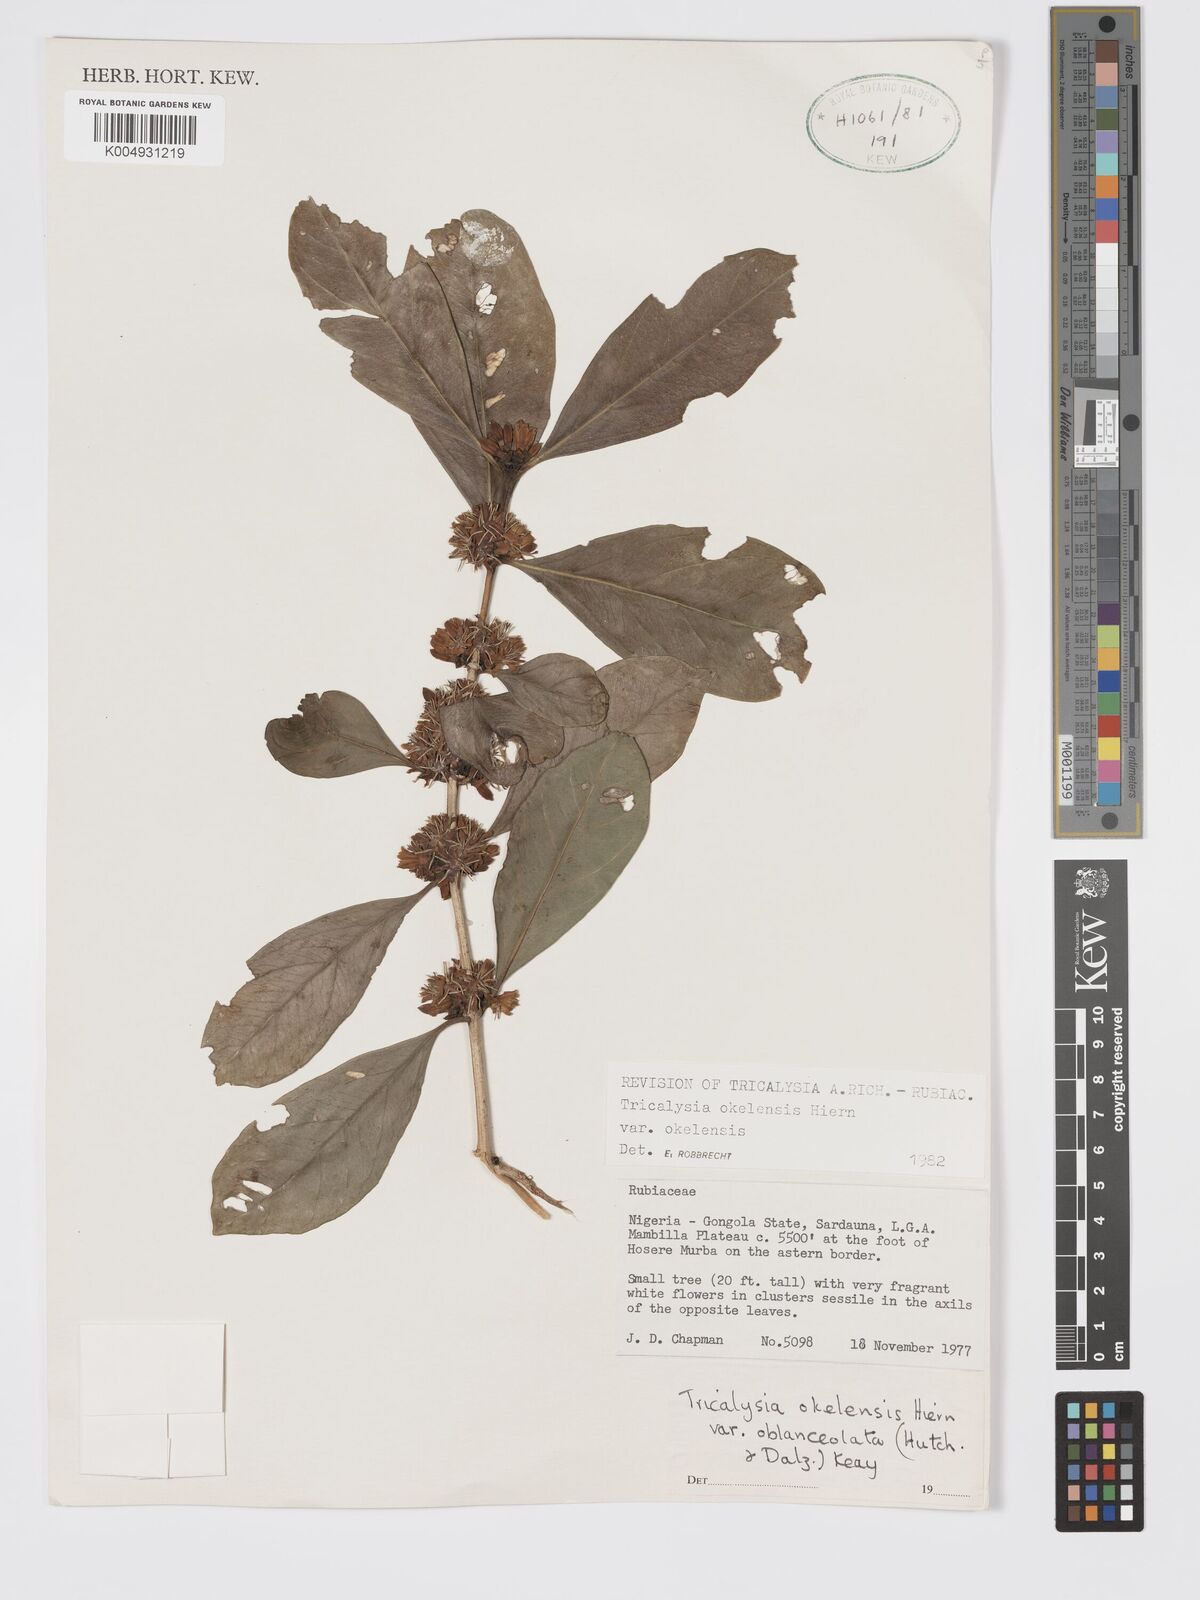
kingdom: Plantae
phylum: Tracheophyta
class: Magnoliopsida
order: Gentianales
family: Rubiaceae
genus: Tricalysia
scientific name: Tricalysia okelensis
